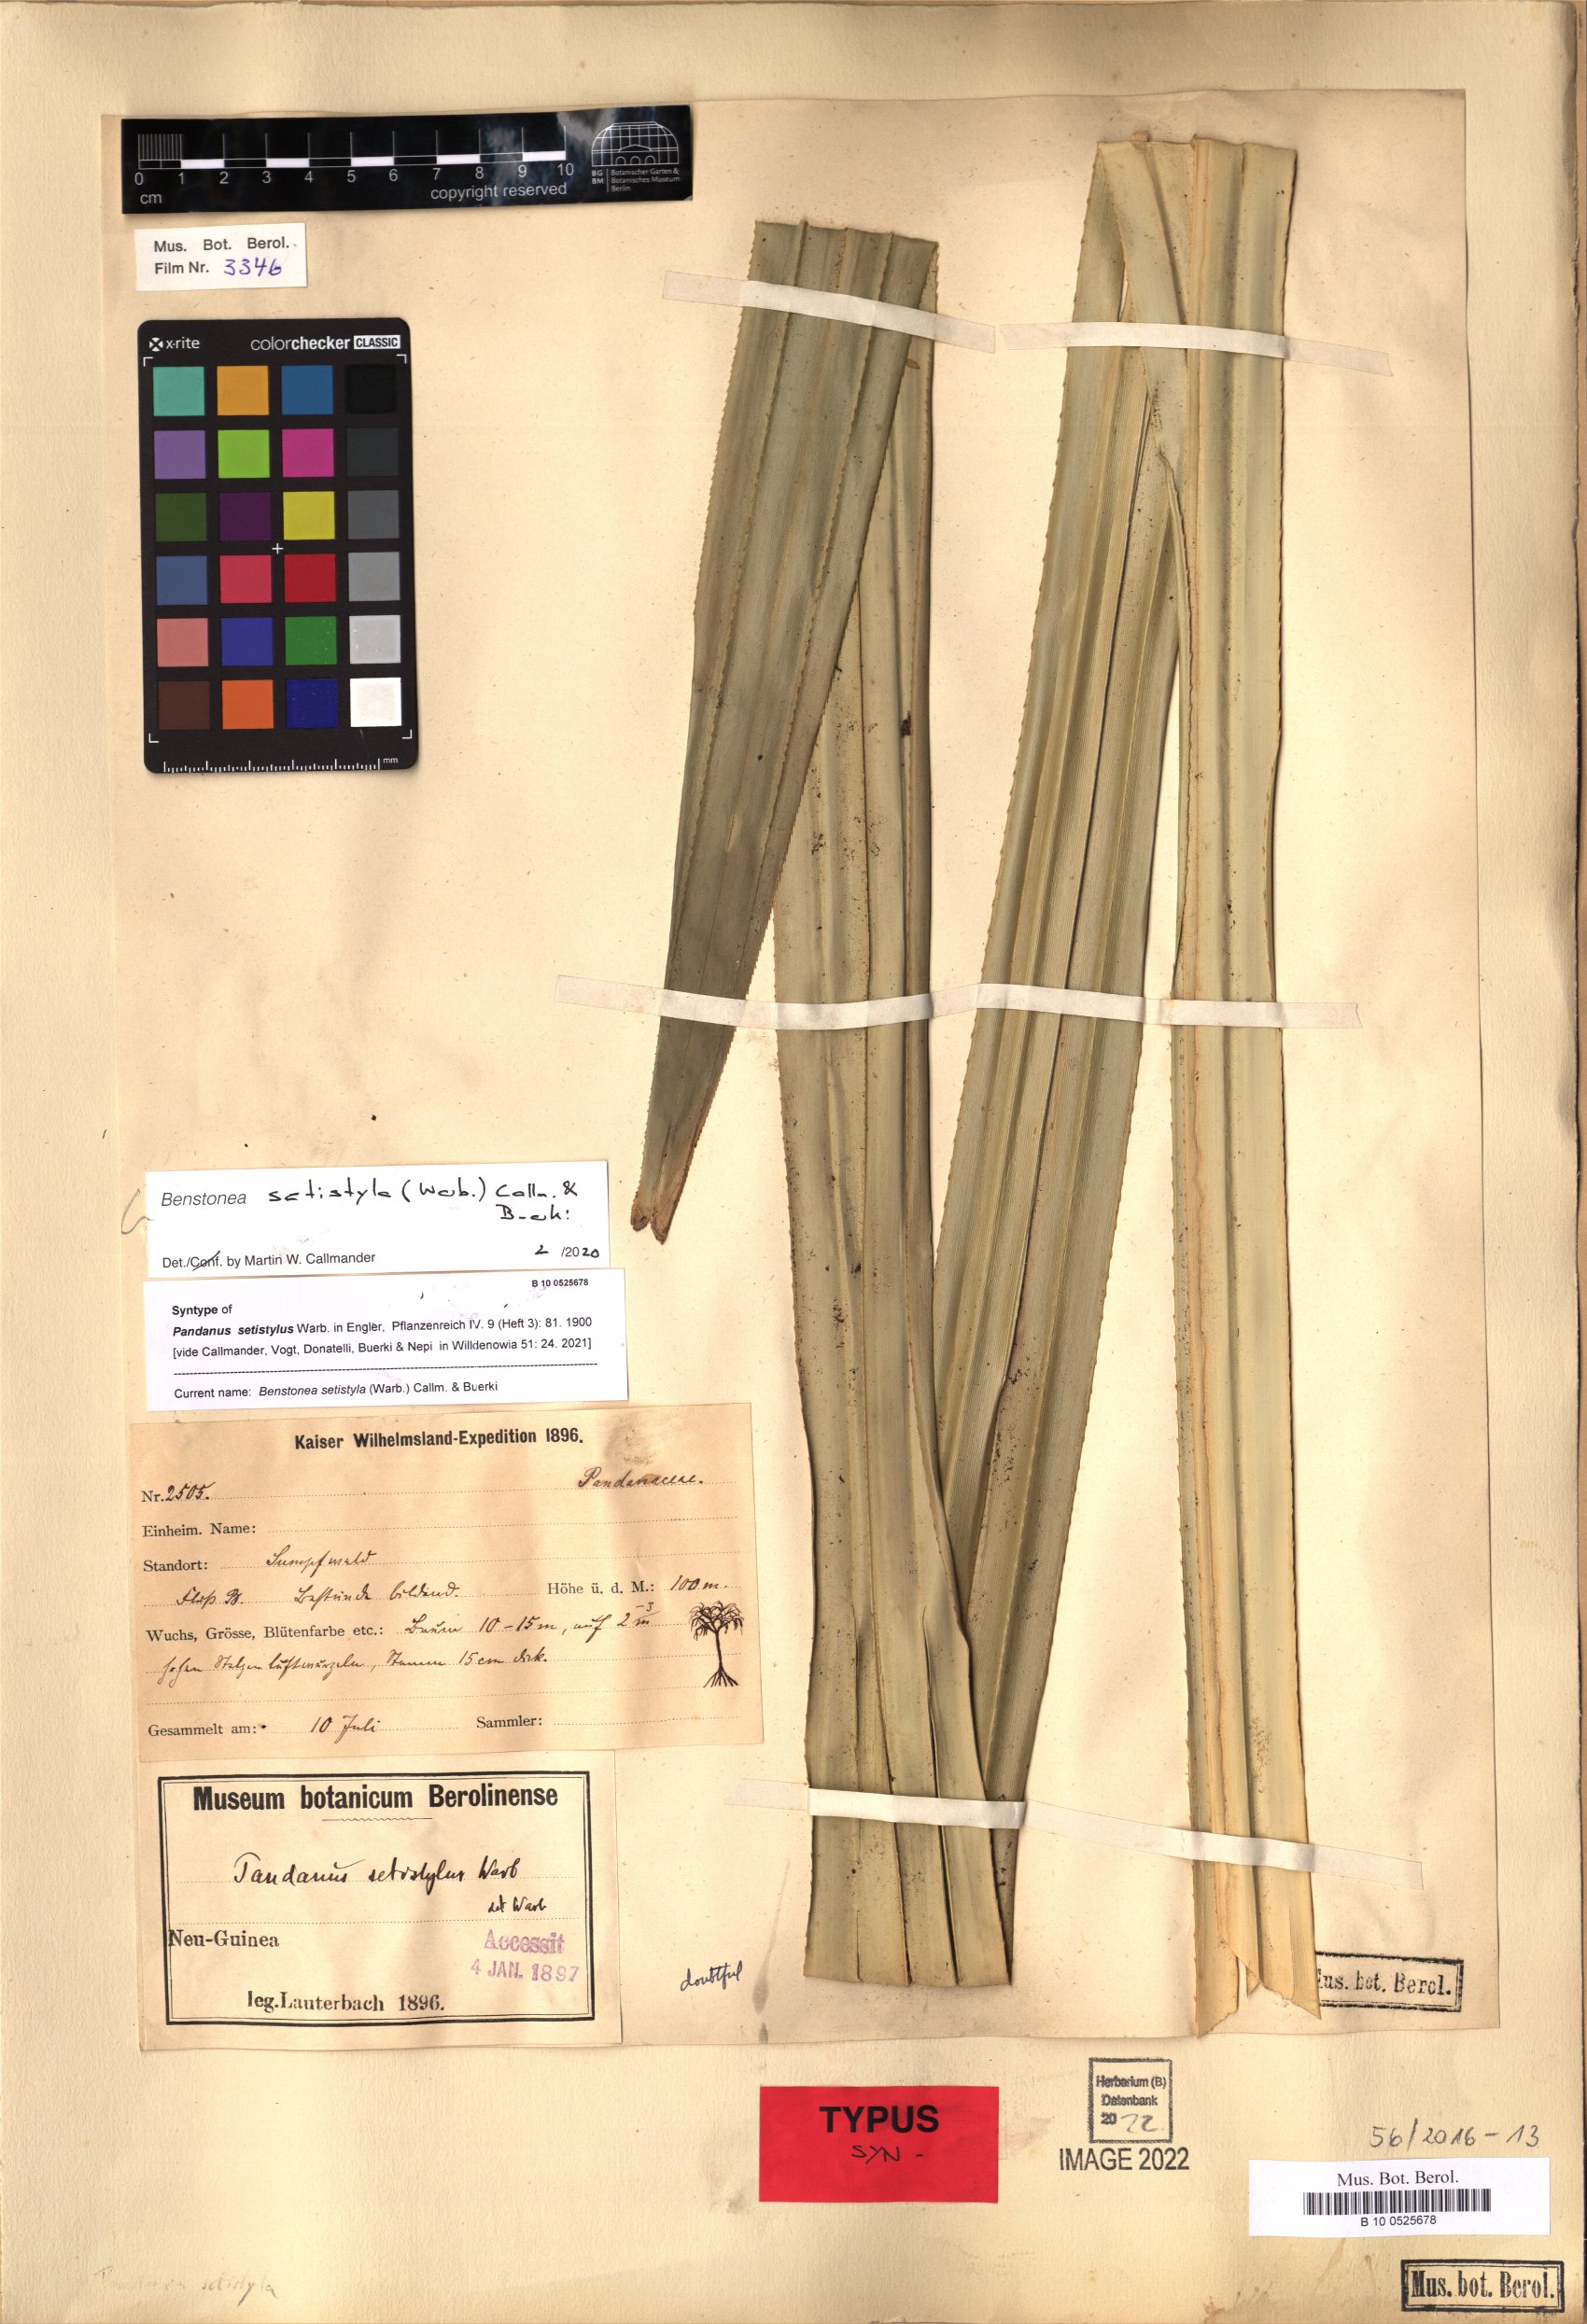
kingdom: Plantae
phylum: Tracheophyta
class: Liliopsida
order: Pandanales
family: Pandanaceae
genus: Benstonea
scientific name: Benstonea setistyla
